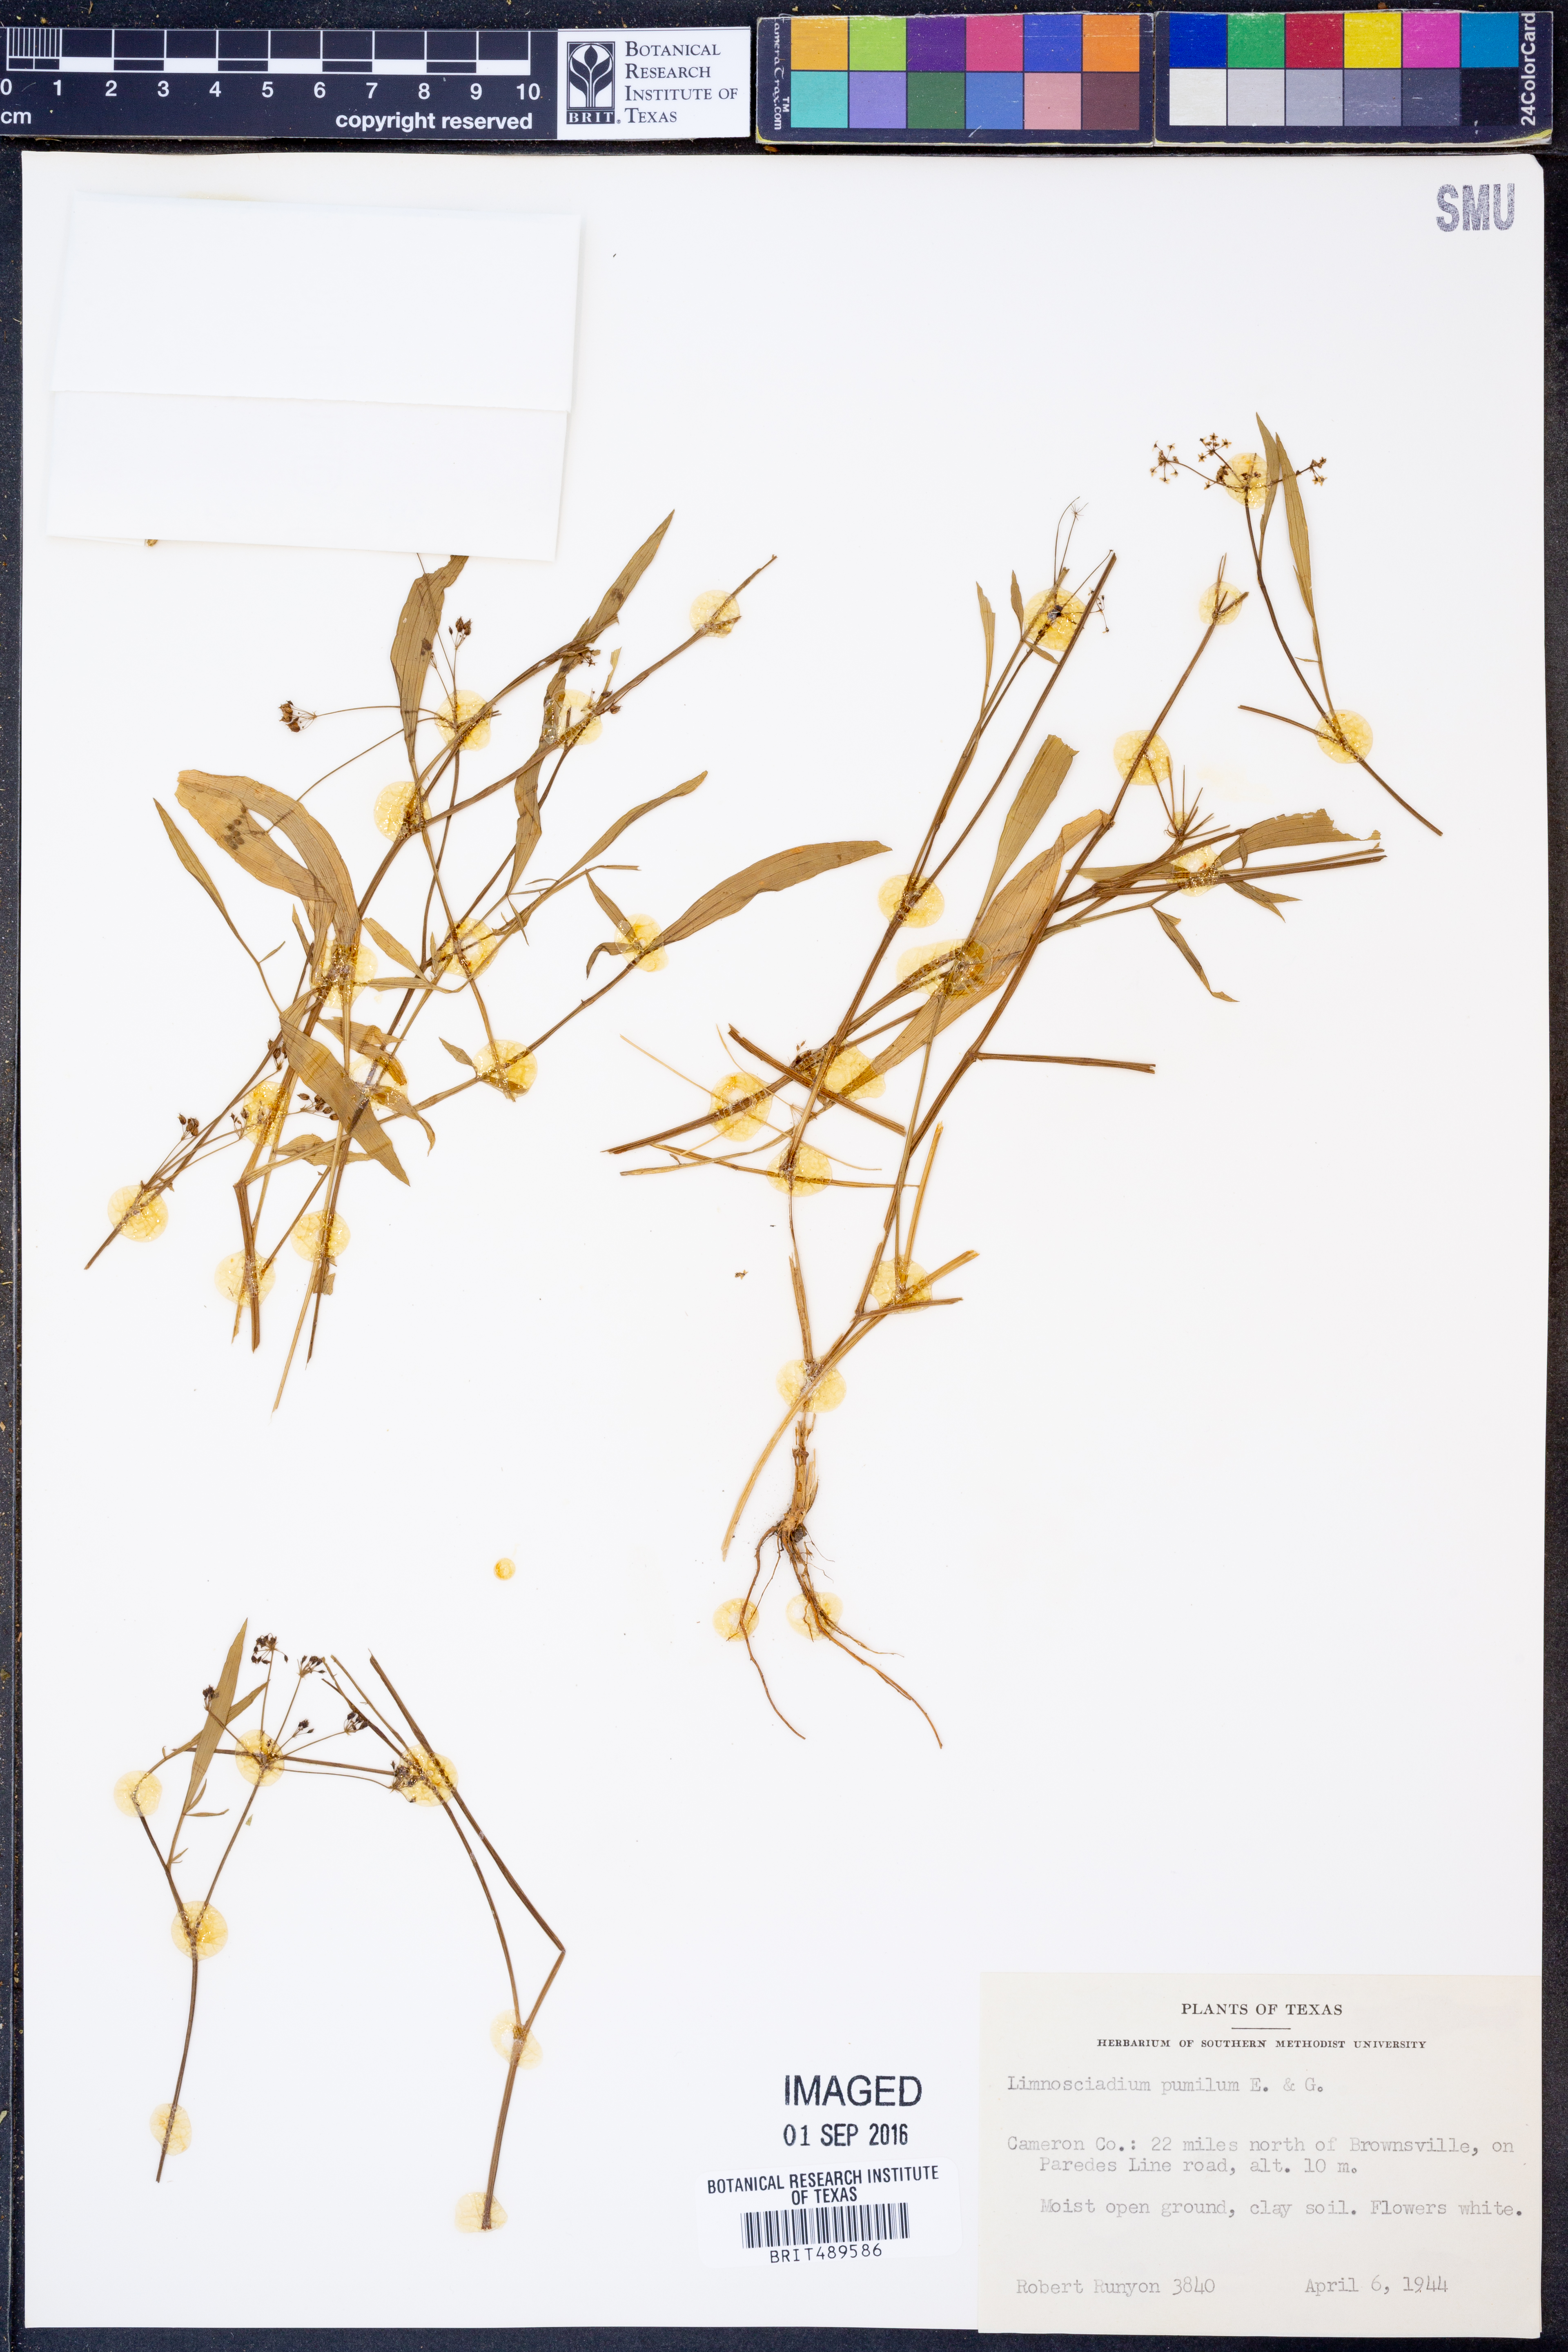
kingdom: Plantae
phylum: Tracheophyta
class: Magnoliopsida
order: Apiales
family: Apiaceae
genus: Limnosciadium
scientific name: Limnosciadium pinnatum
